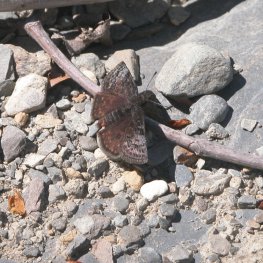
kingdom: Animalia
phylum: Arthropoda
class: Insecta
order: Lepidoptera
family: Hesperiidae
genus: Erynnis
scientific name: Erynnis icelus
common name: Dreamy Duskywing
